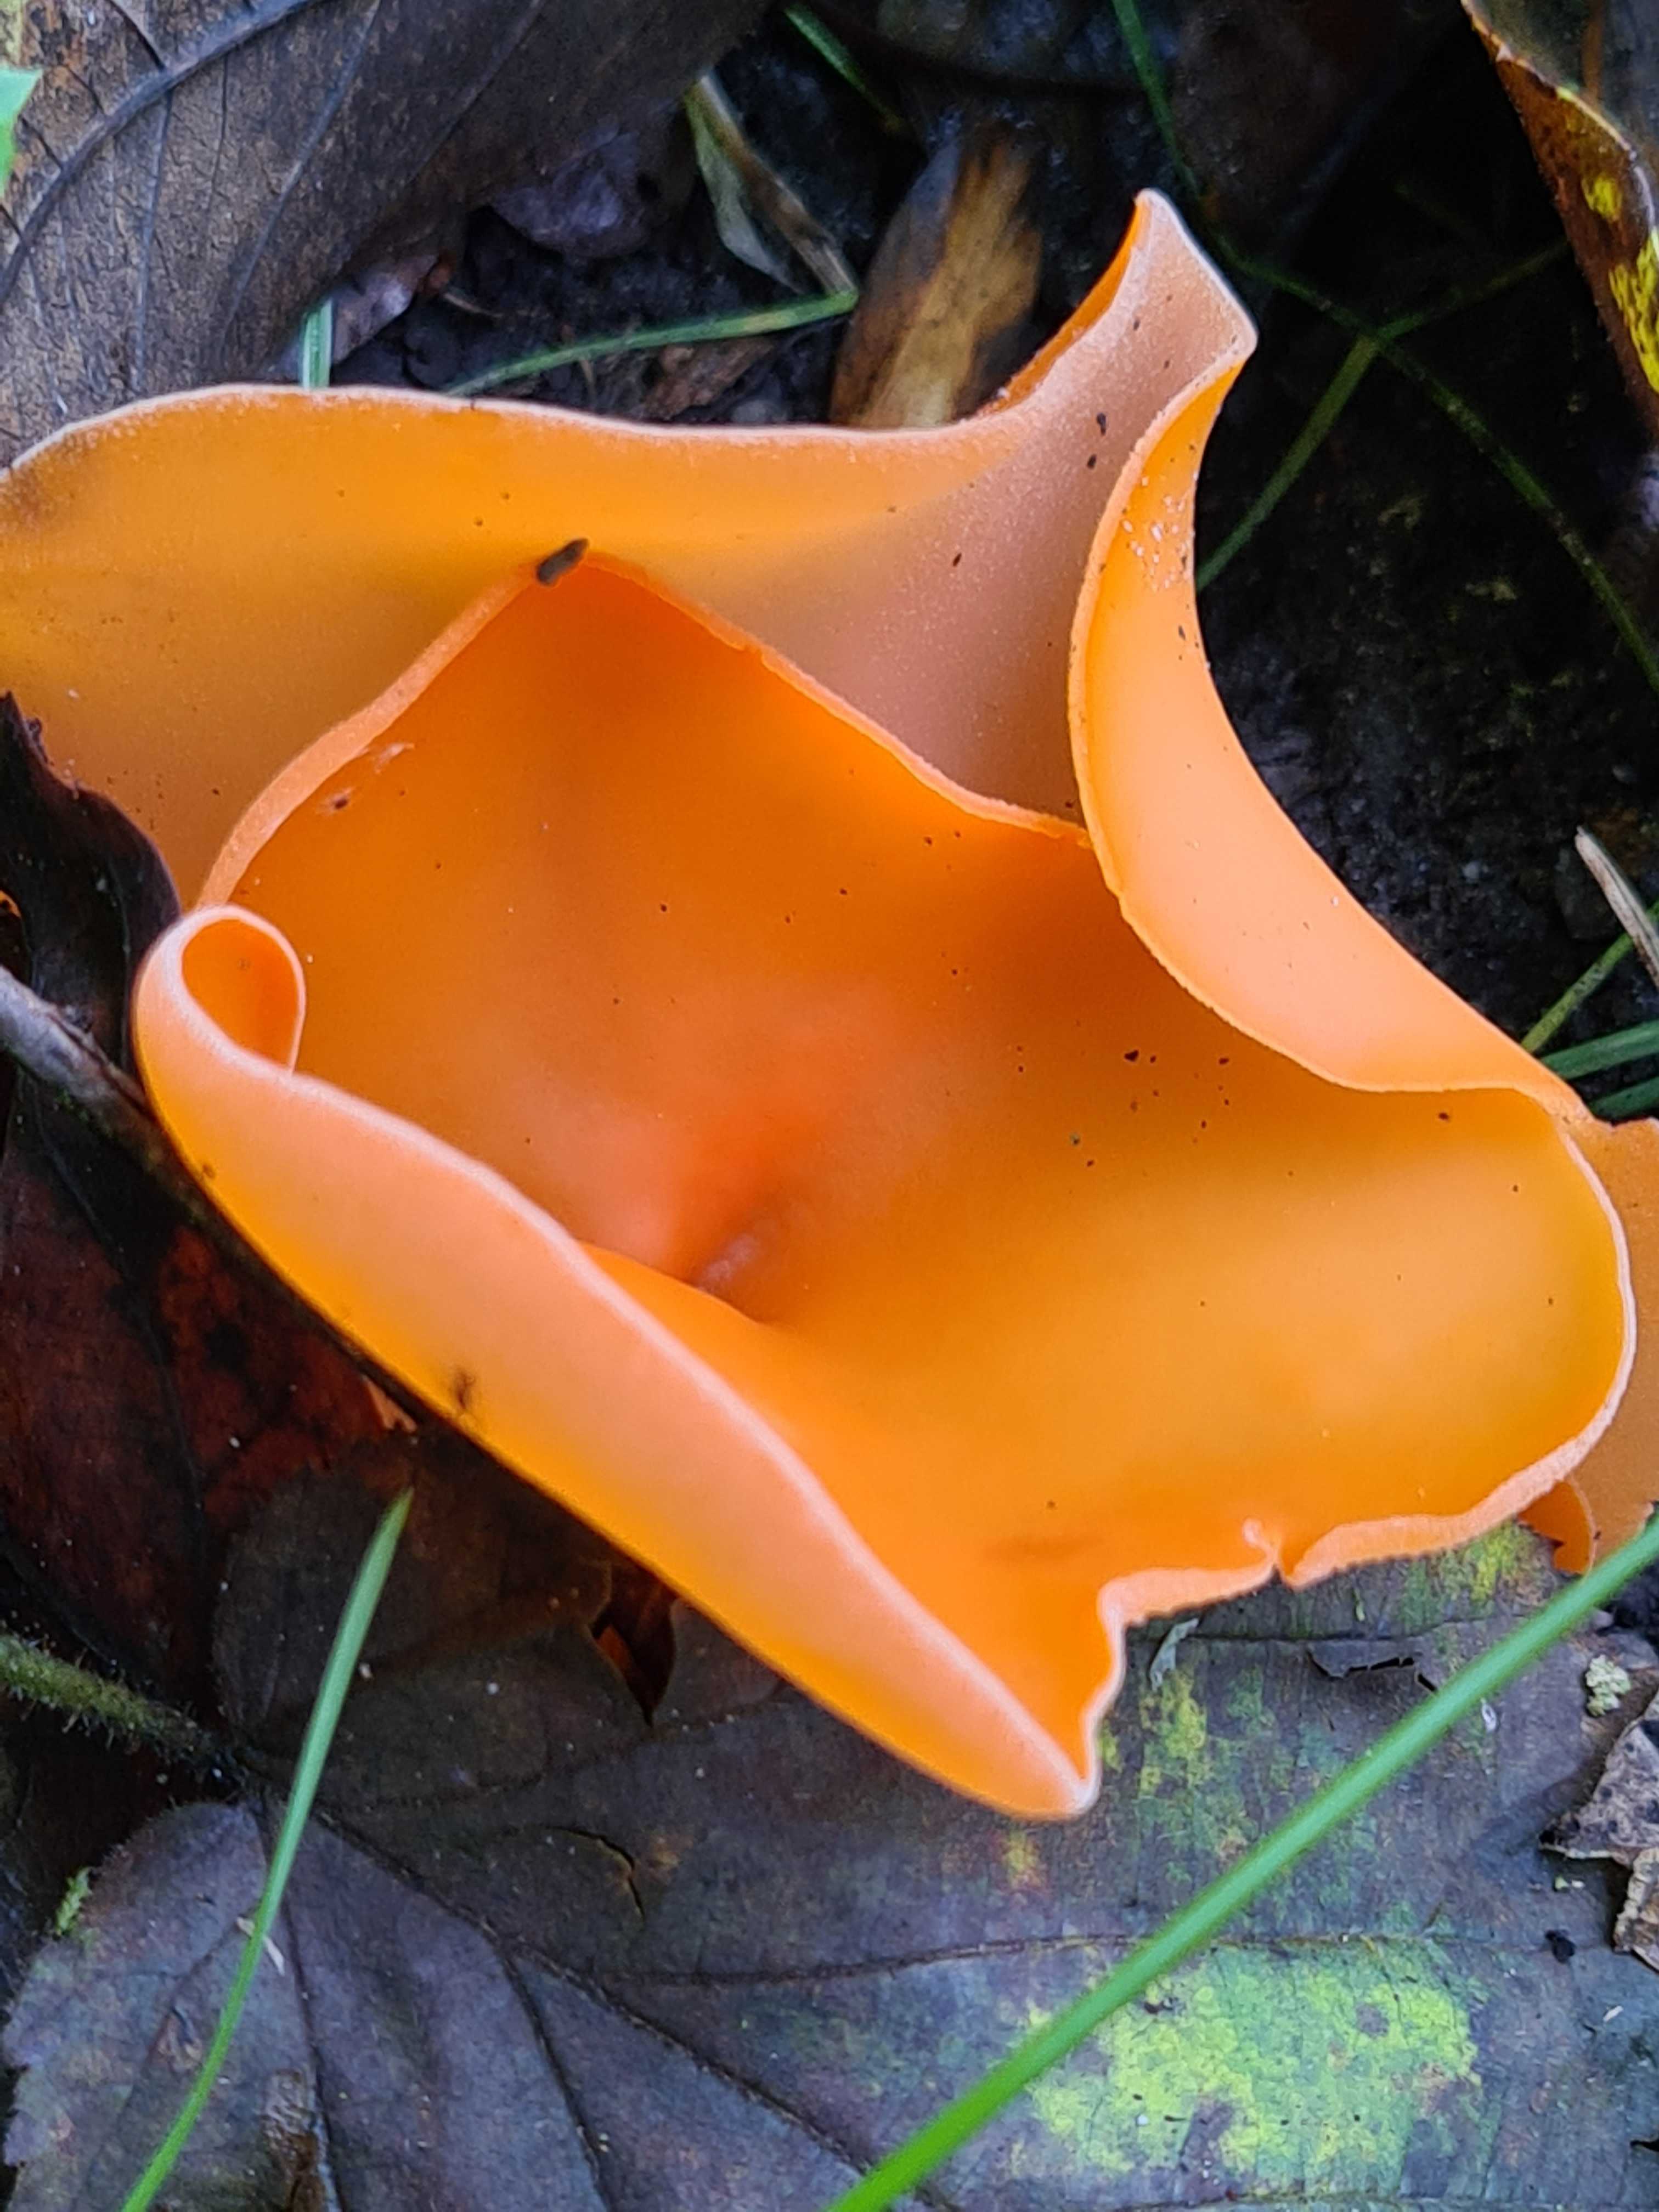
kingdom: Fungi
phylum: Ascomycota
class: Pezizomycetes
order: Pezizales
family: Pyronemataceae
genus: Aleuria
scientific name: Aleuria aurantia
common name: almindelig orangebæger
